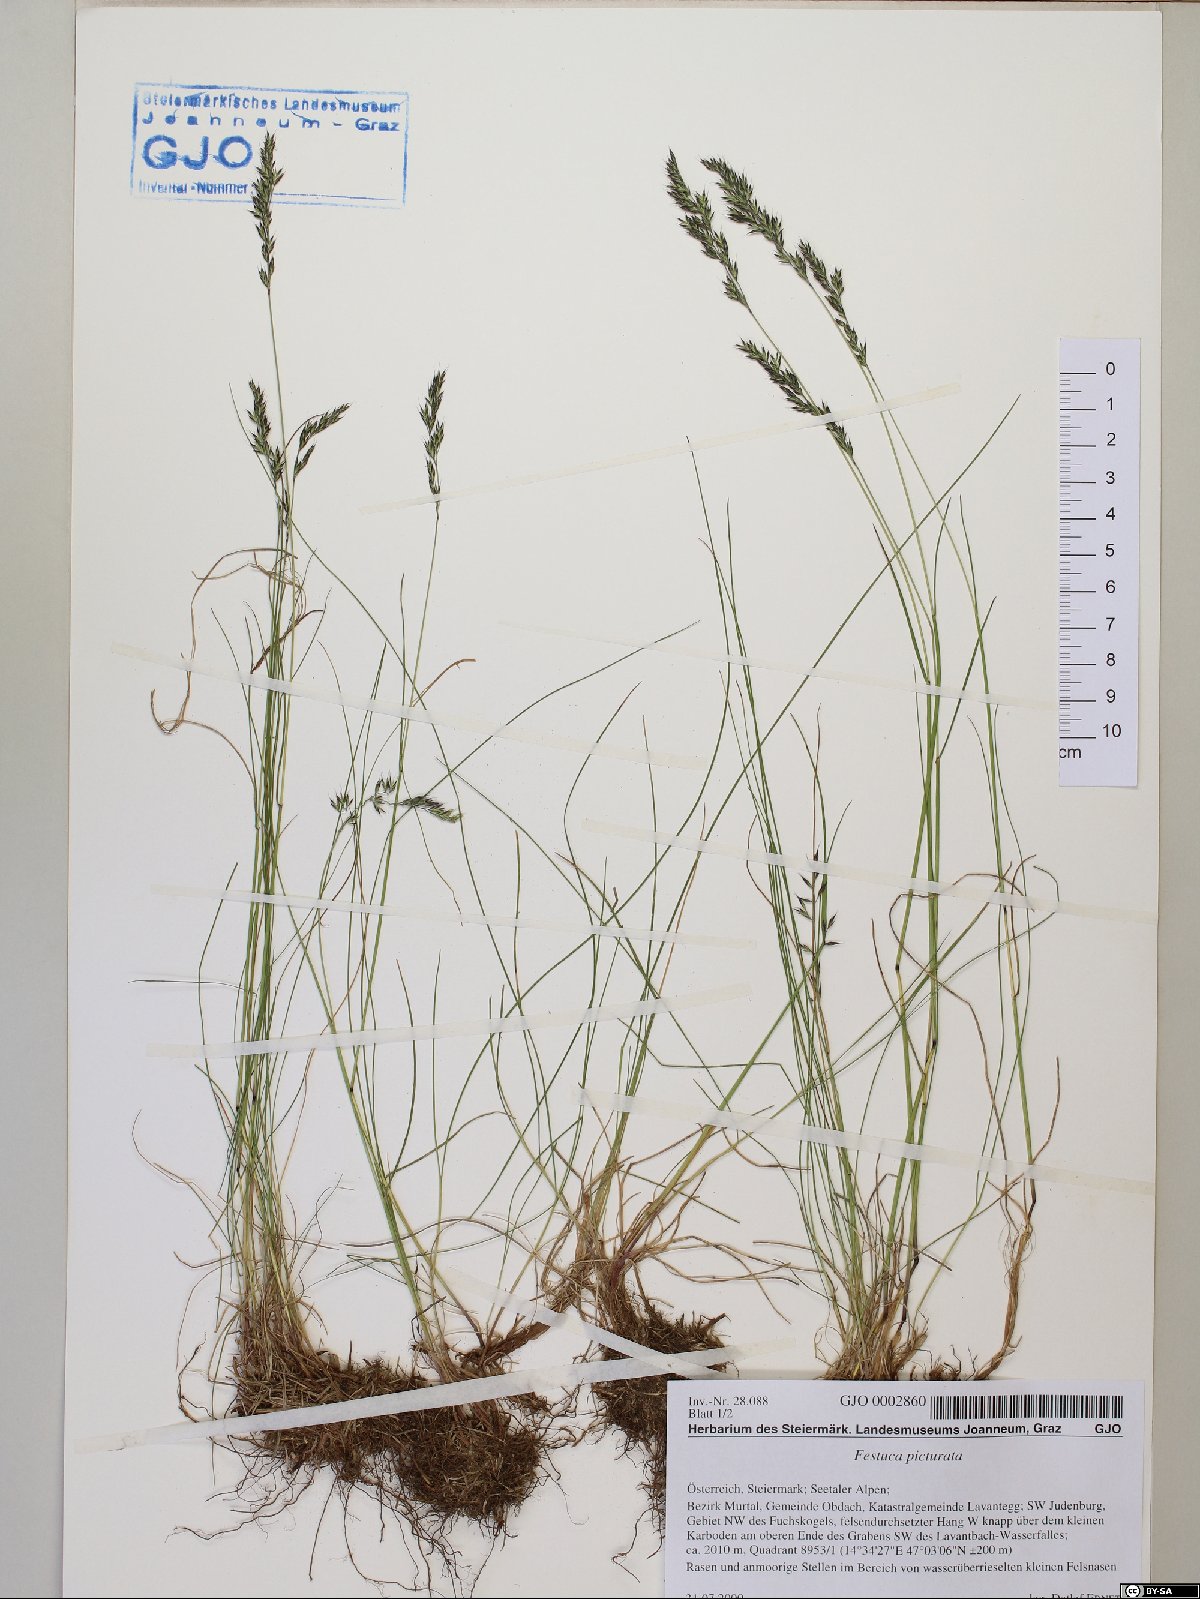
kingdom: Plantae
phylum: Tracheophyta
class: Liliopsida
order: Poales
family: Poaceae
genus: Festuca
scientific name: Festuca picturata
